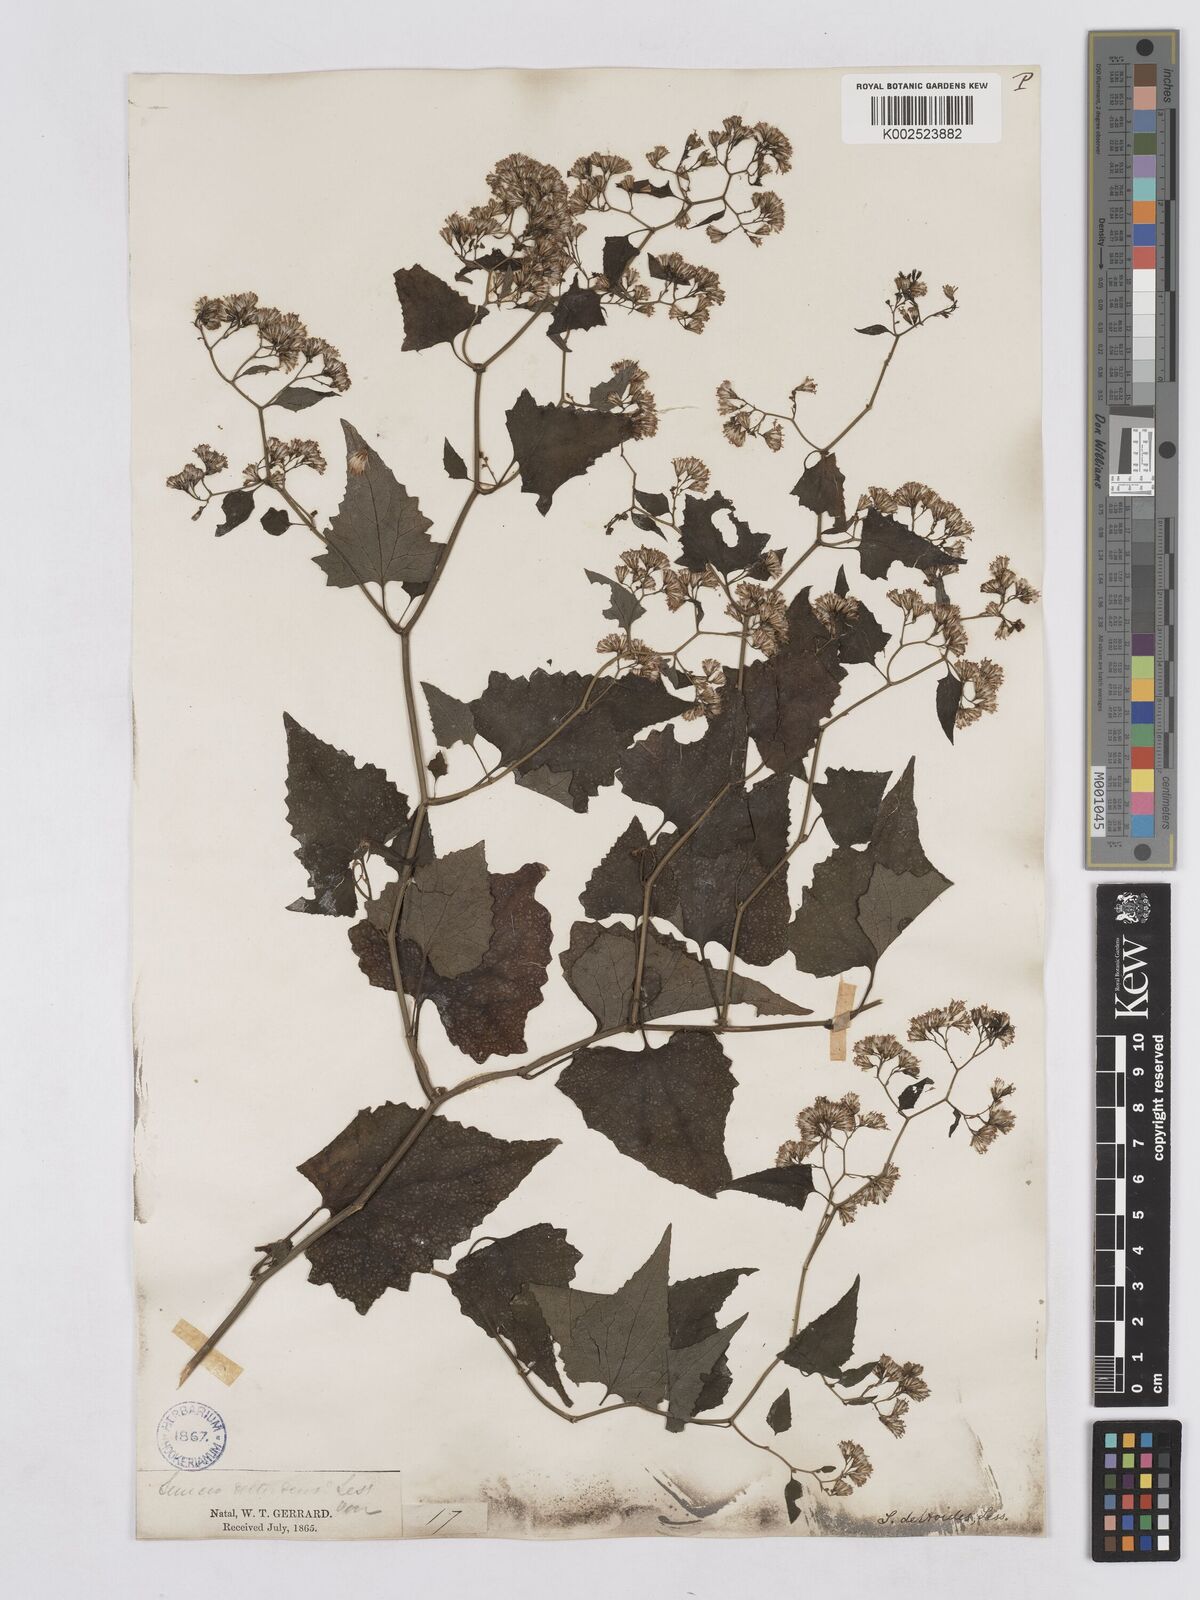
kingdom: Plantae
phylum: Tracheophyta
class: Magnoliopsida
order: Asterales
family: Asteraceae
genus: Senecio
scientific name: Senecio deltoideus
